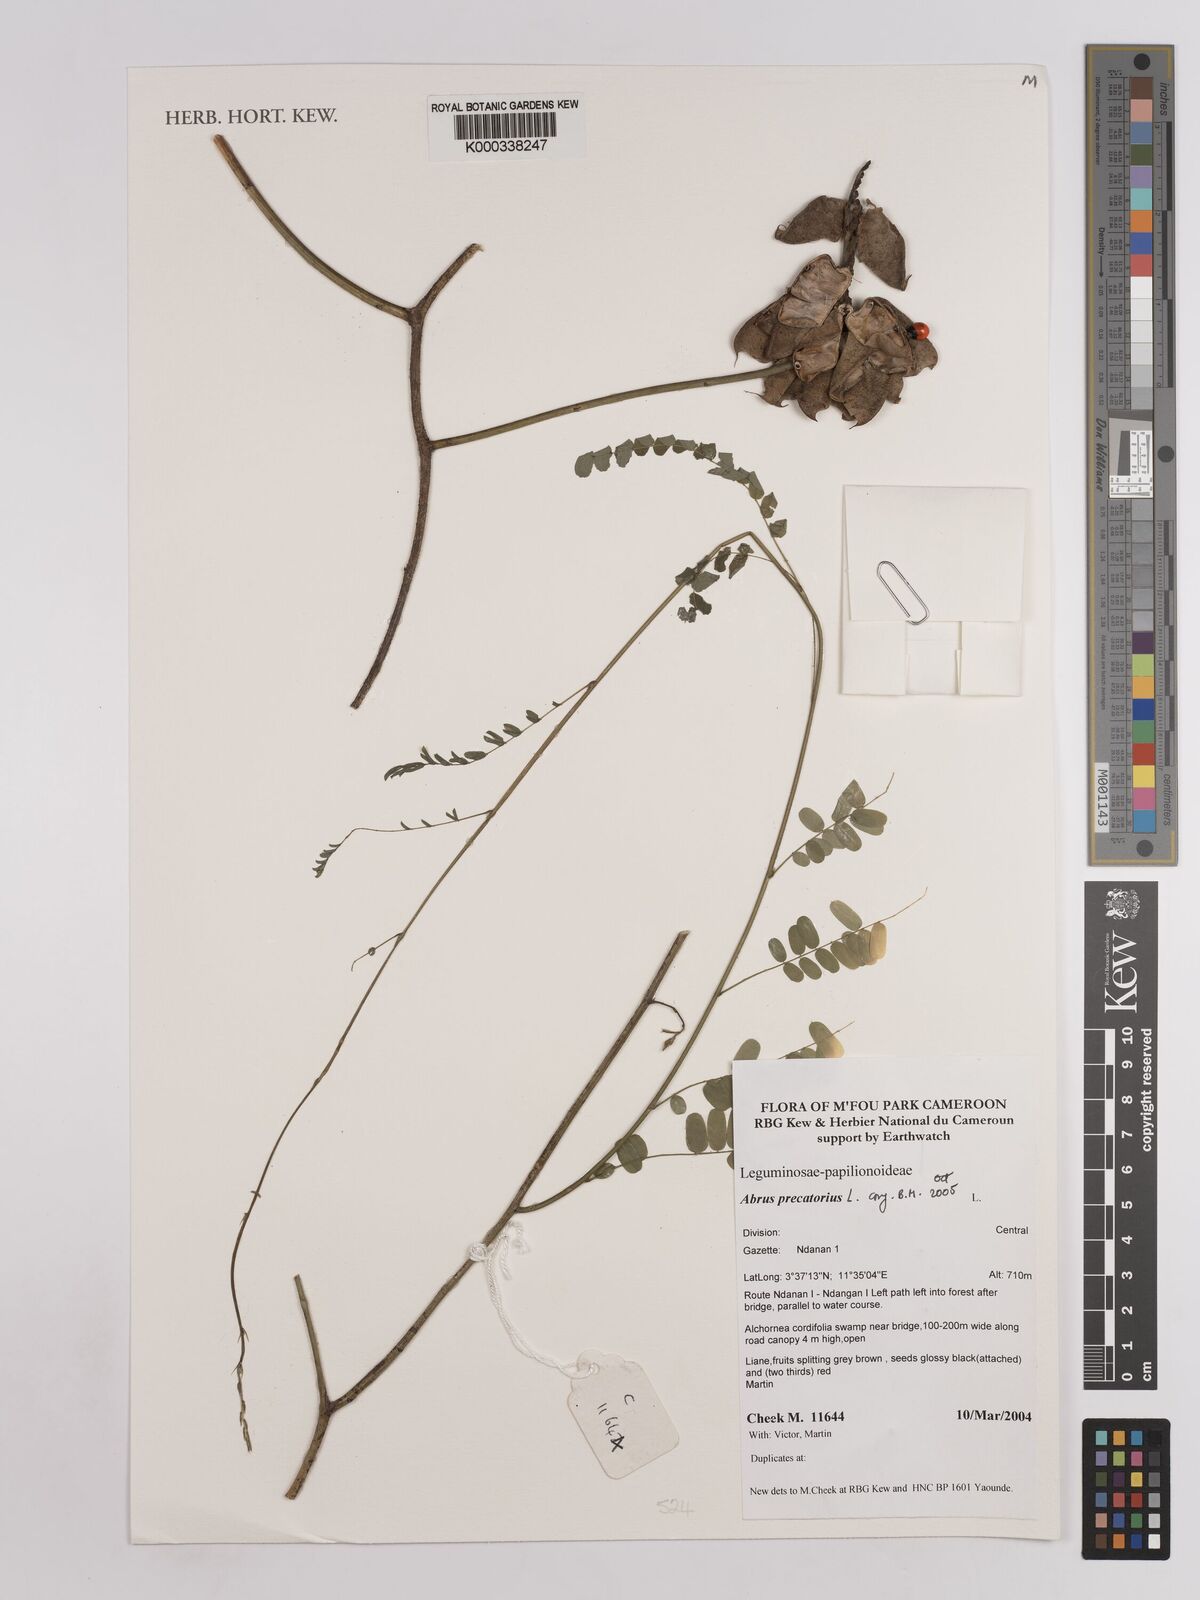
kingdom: Plantae
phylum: Tracheophyta
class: Magnoliopsida
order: Fabales
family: Fabaceae
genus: Abrus
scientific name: Abrus precatorius
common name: Rosarypea
